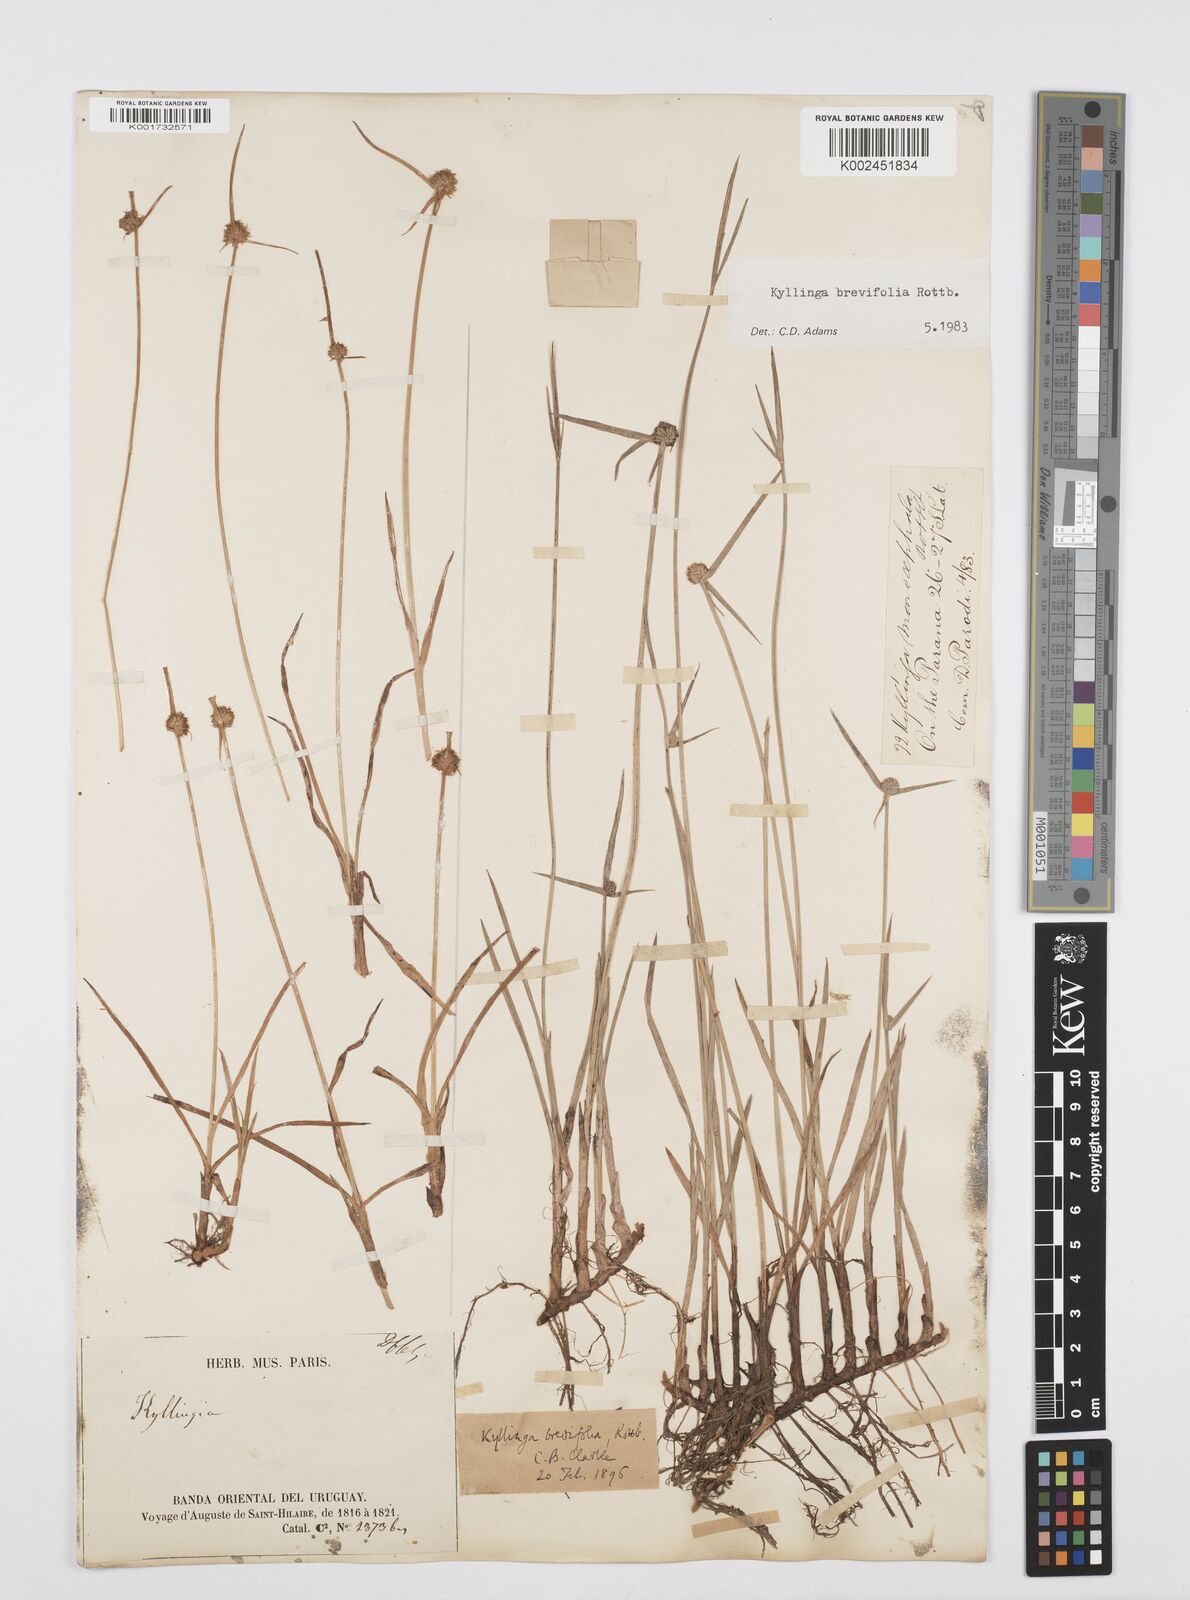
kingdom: Plantae
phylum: Tracheophyta
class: Liliopsida
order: Poales
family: Cyperaceae
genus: Cyperus
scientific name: Cyperus brevifolius
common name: Globe kyllinga
